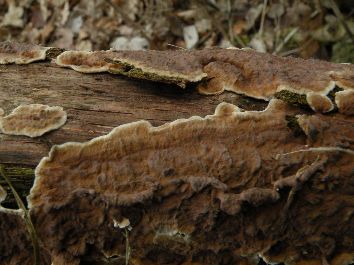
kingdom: Fungi
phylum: Basidiomycota
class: Agaricomycetes
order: Hymenochaetales
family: Hymenochaetaceae
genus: Hydnoporia
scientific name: Hydnoporia tabacina
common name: tobaksbrun ruslædersvamp
